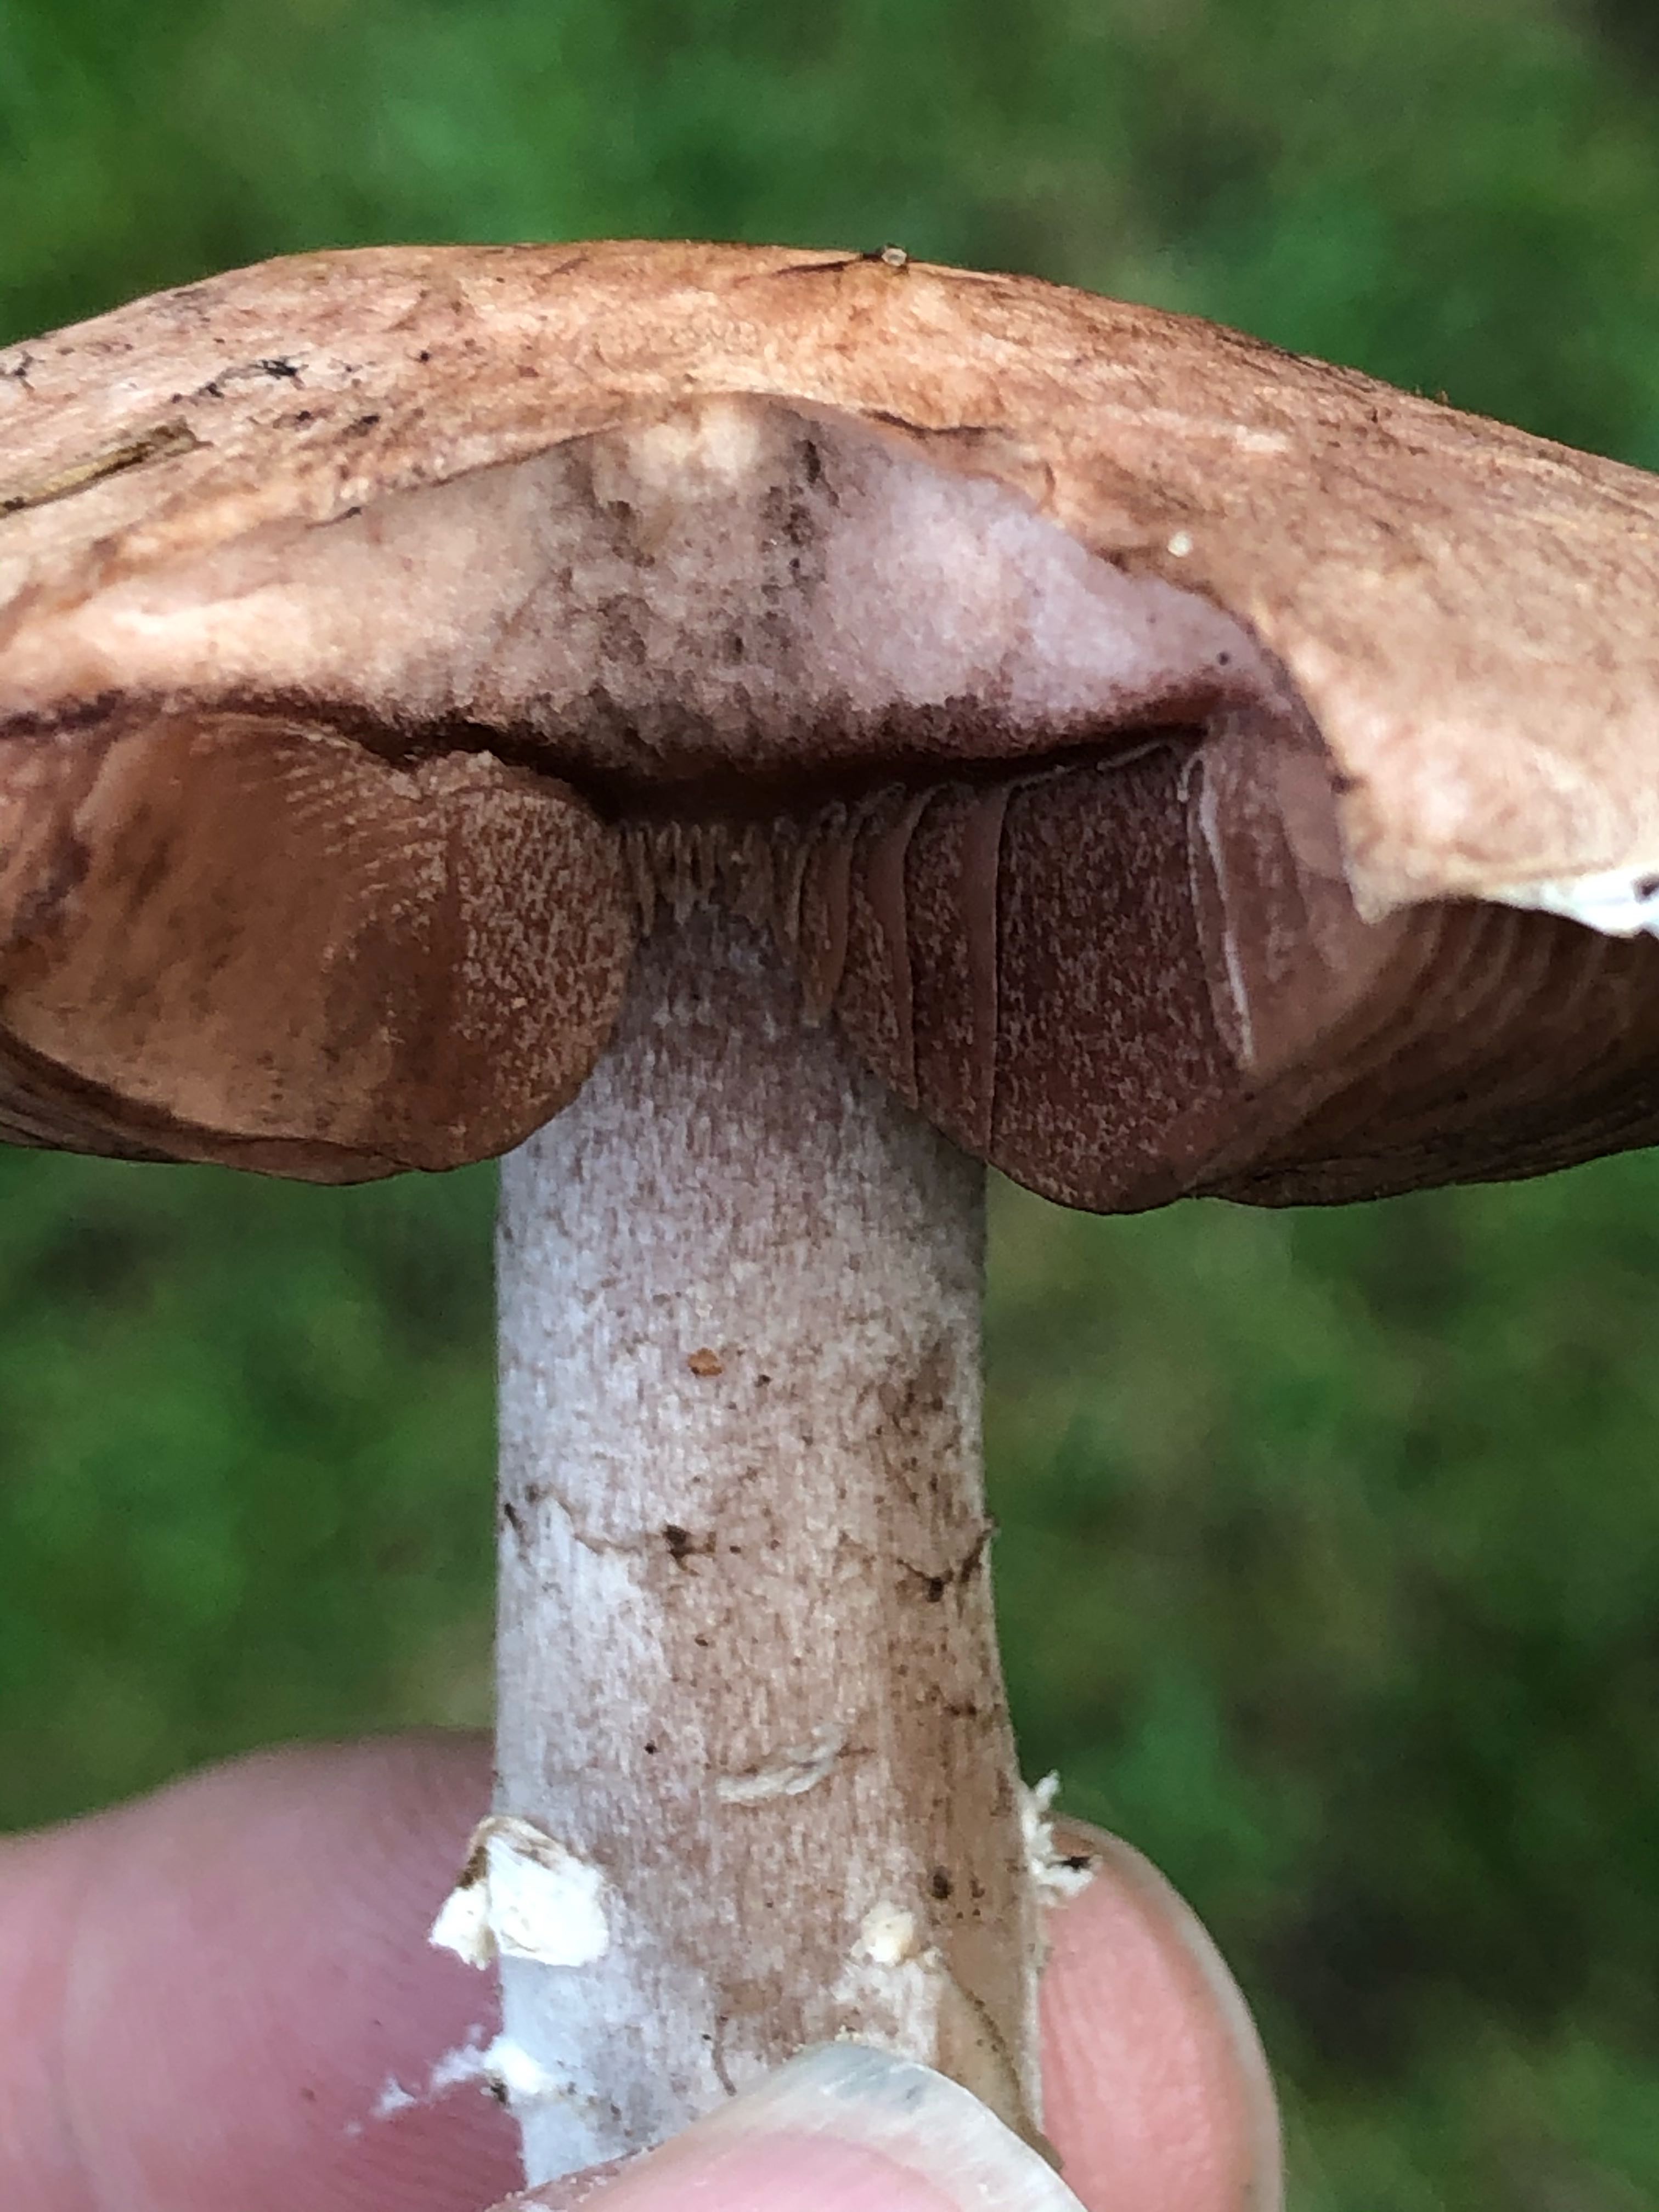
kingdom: Fungi
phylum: Basidiomycota
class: Agaricomycetes
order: Agaricales
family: Agaricaceae
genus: Agaricus
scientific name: Agaricus cupreobrunneus
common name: kobberbrun champignon
